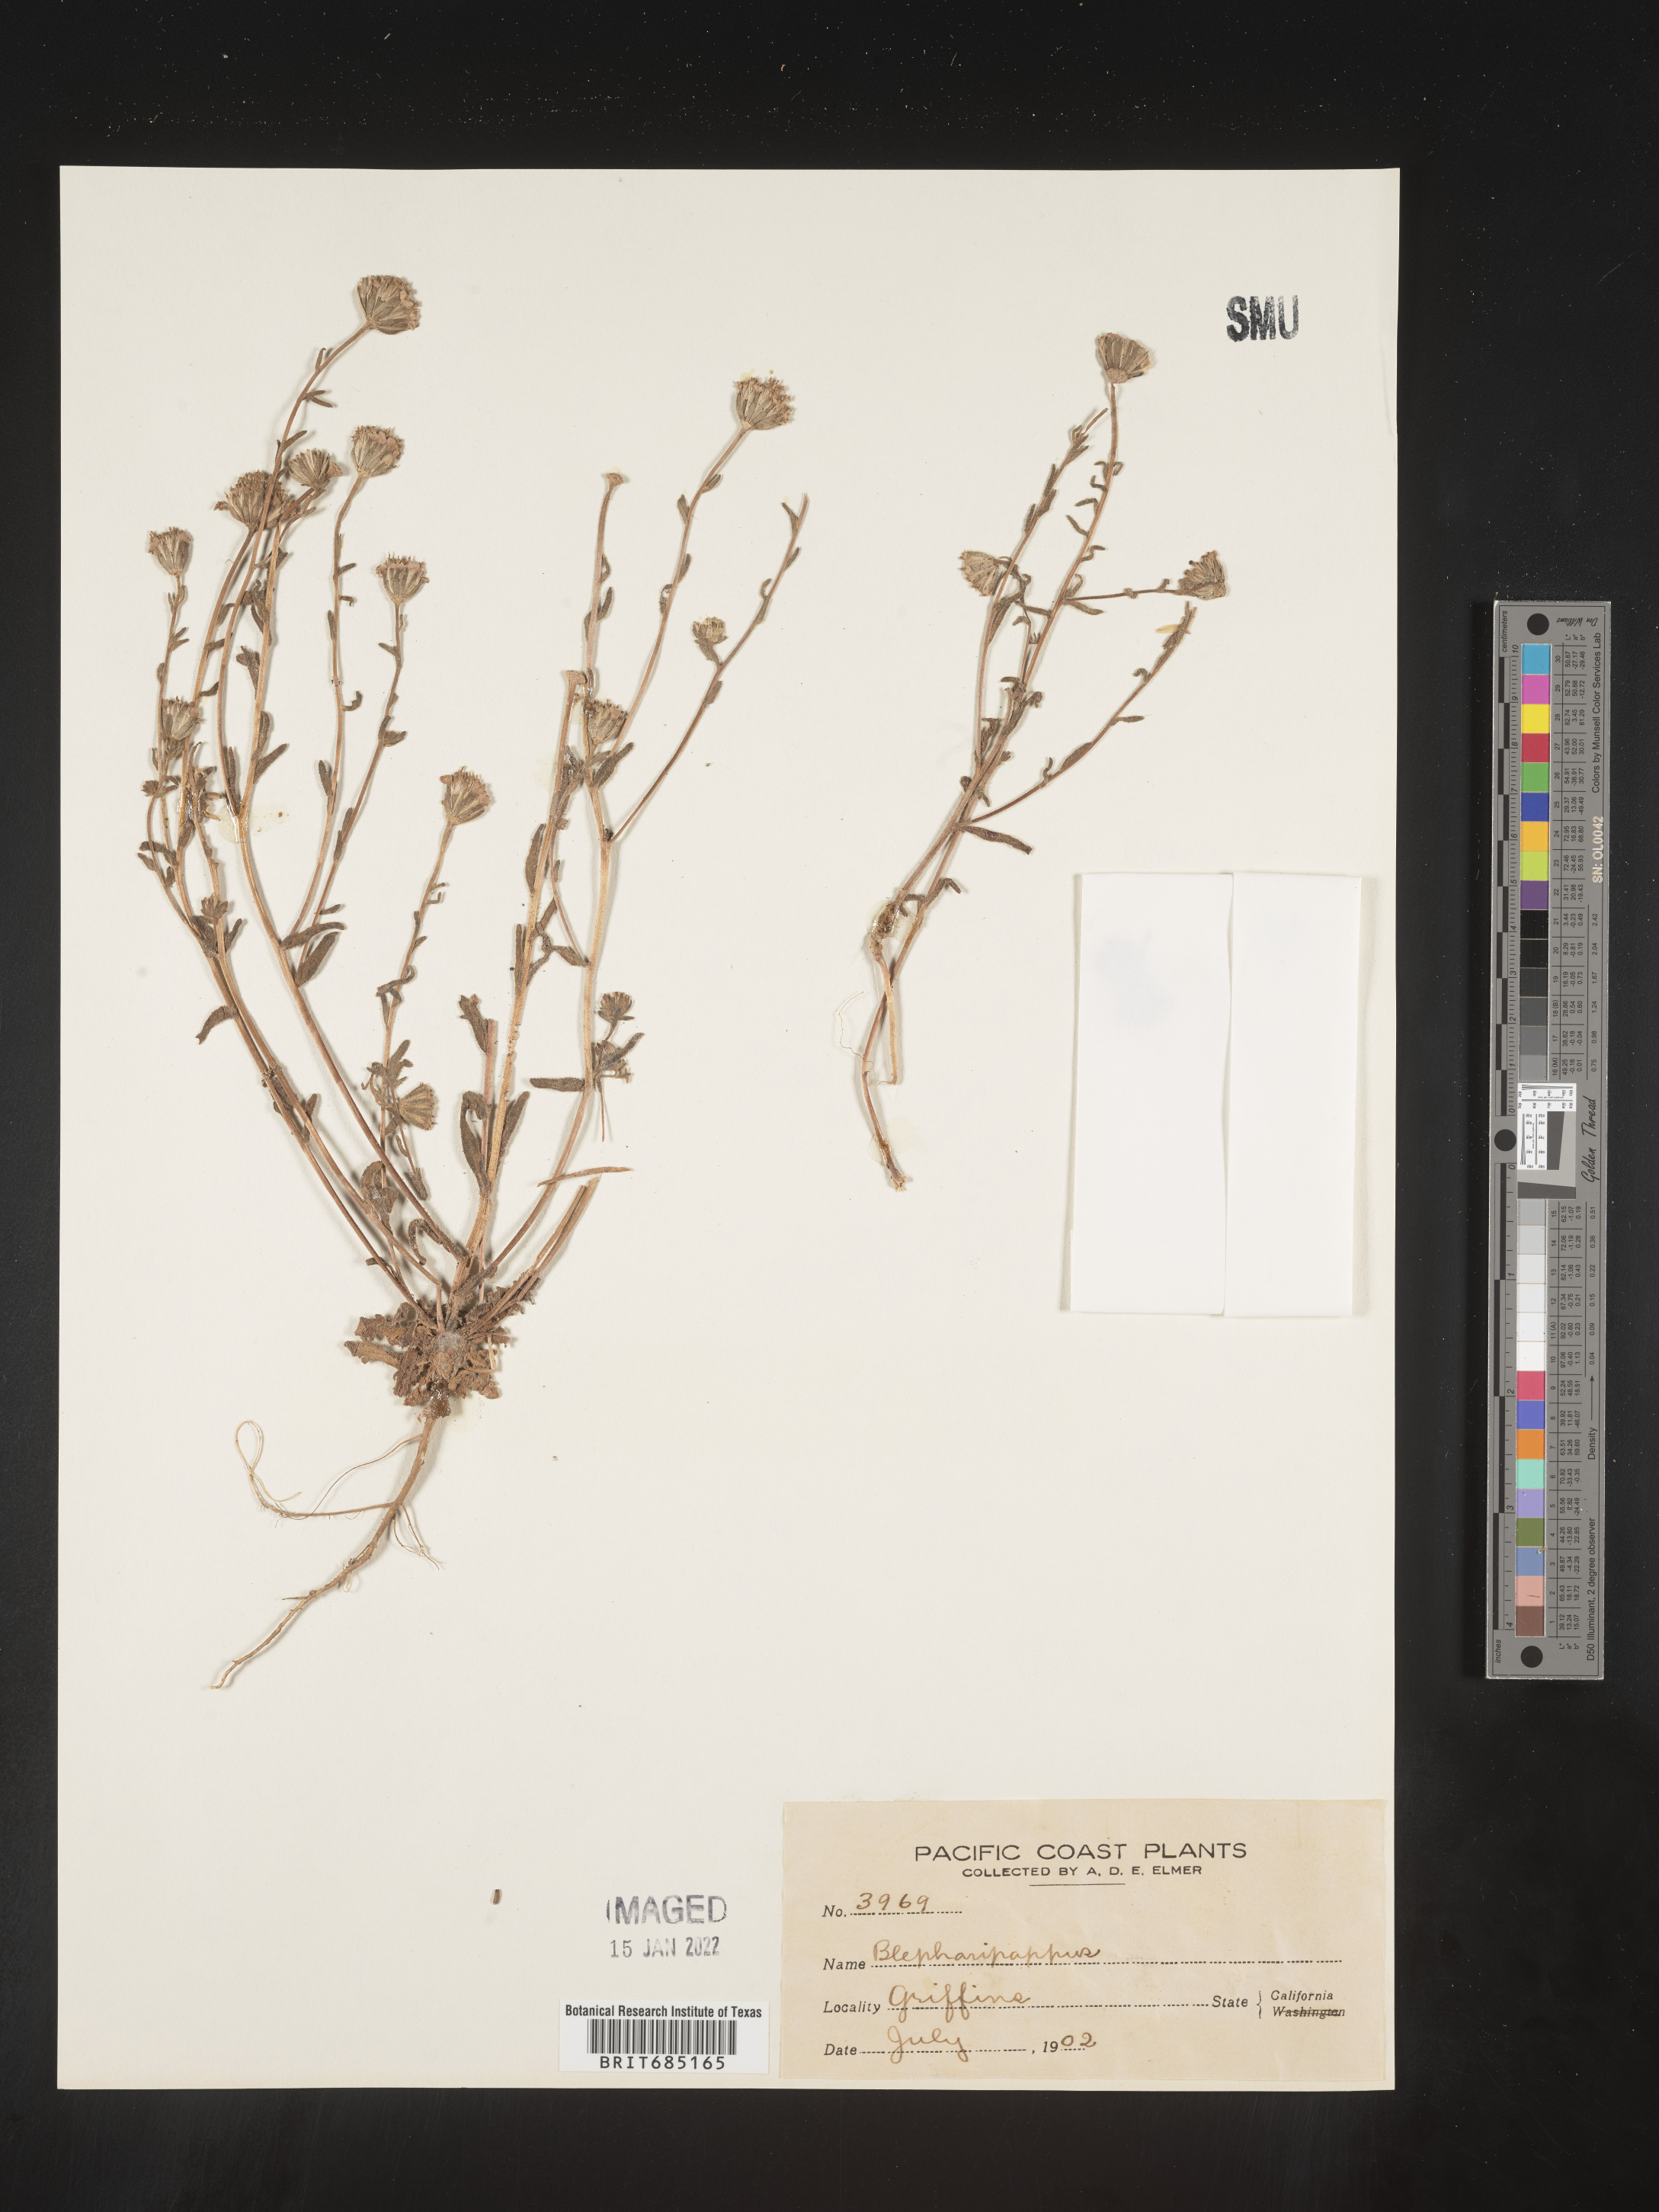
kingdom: Plantae
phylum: Tracheophyta
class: Magnoliopsida
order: Asterales
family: Asteraceae
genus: Blepharipappus
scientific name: Blepharipappus
